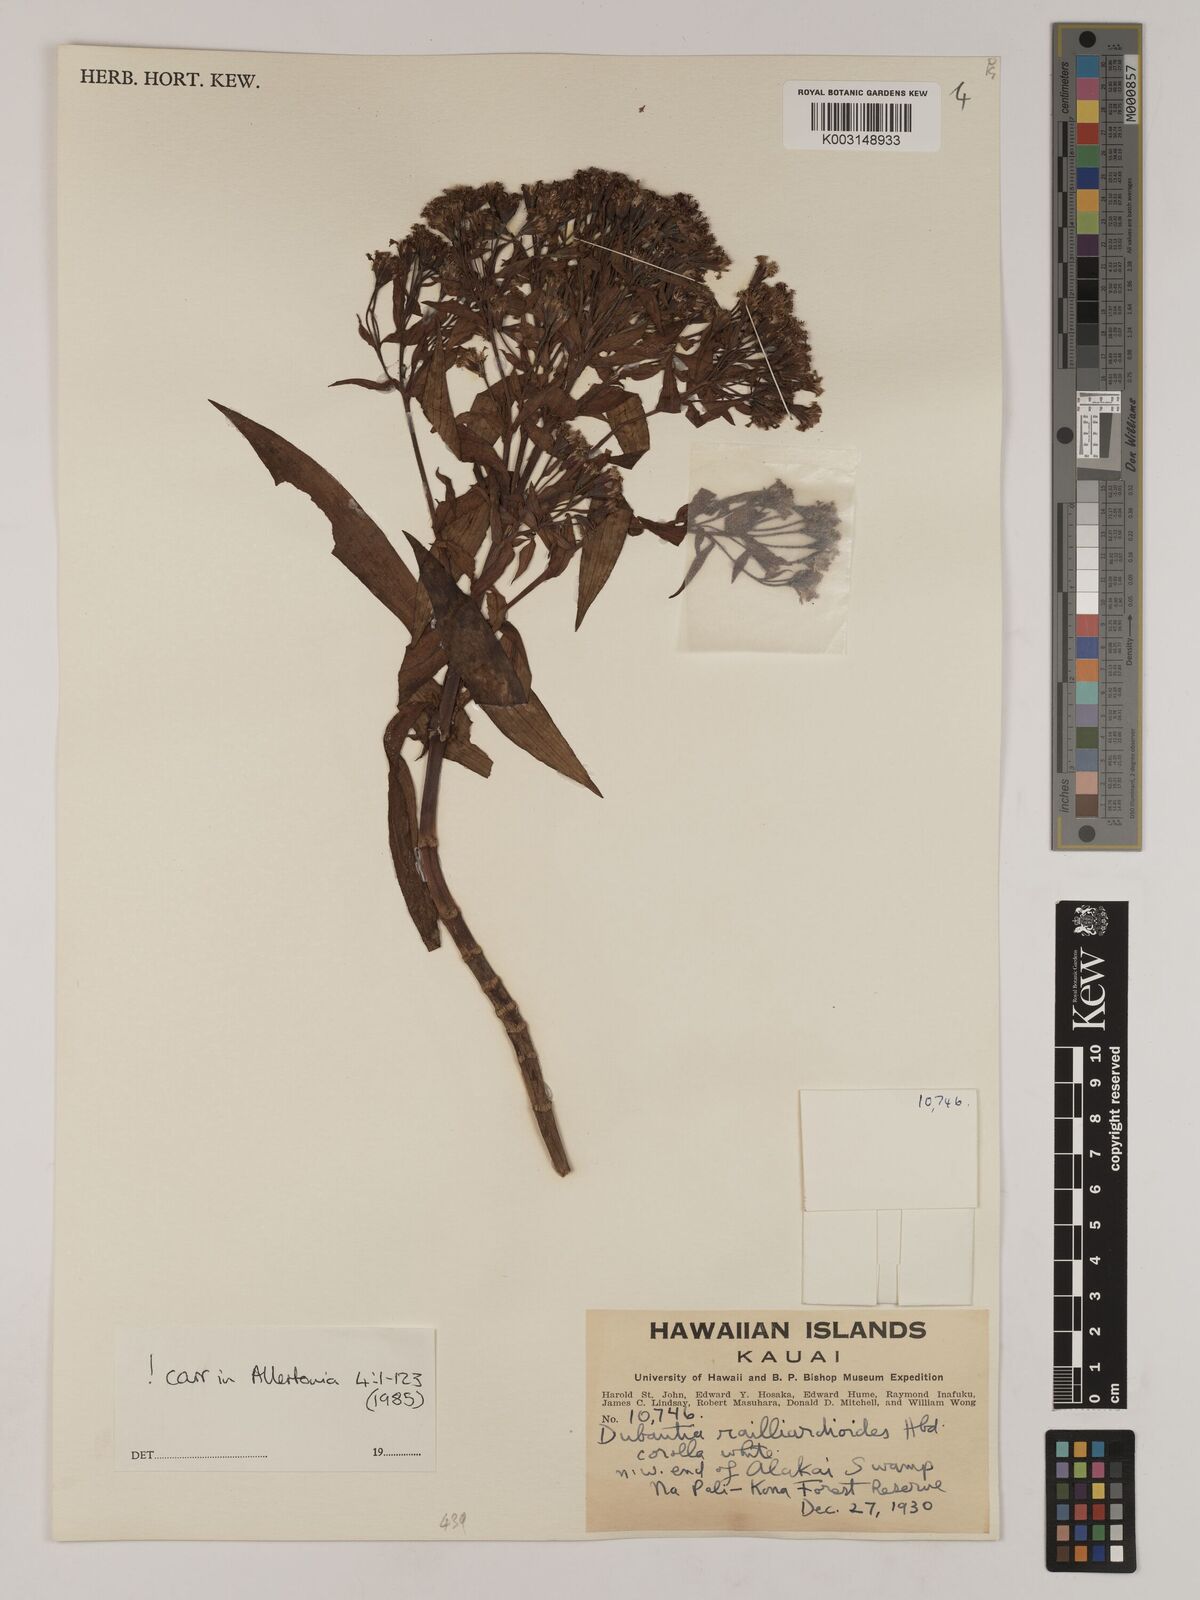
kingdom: Plantae
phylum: Tracheophyta
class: Magnoliopsida
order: Asterales
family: Asteraceae
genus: Dubautia
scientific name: Dubautia raillardioides
